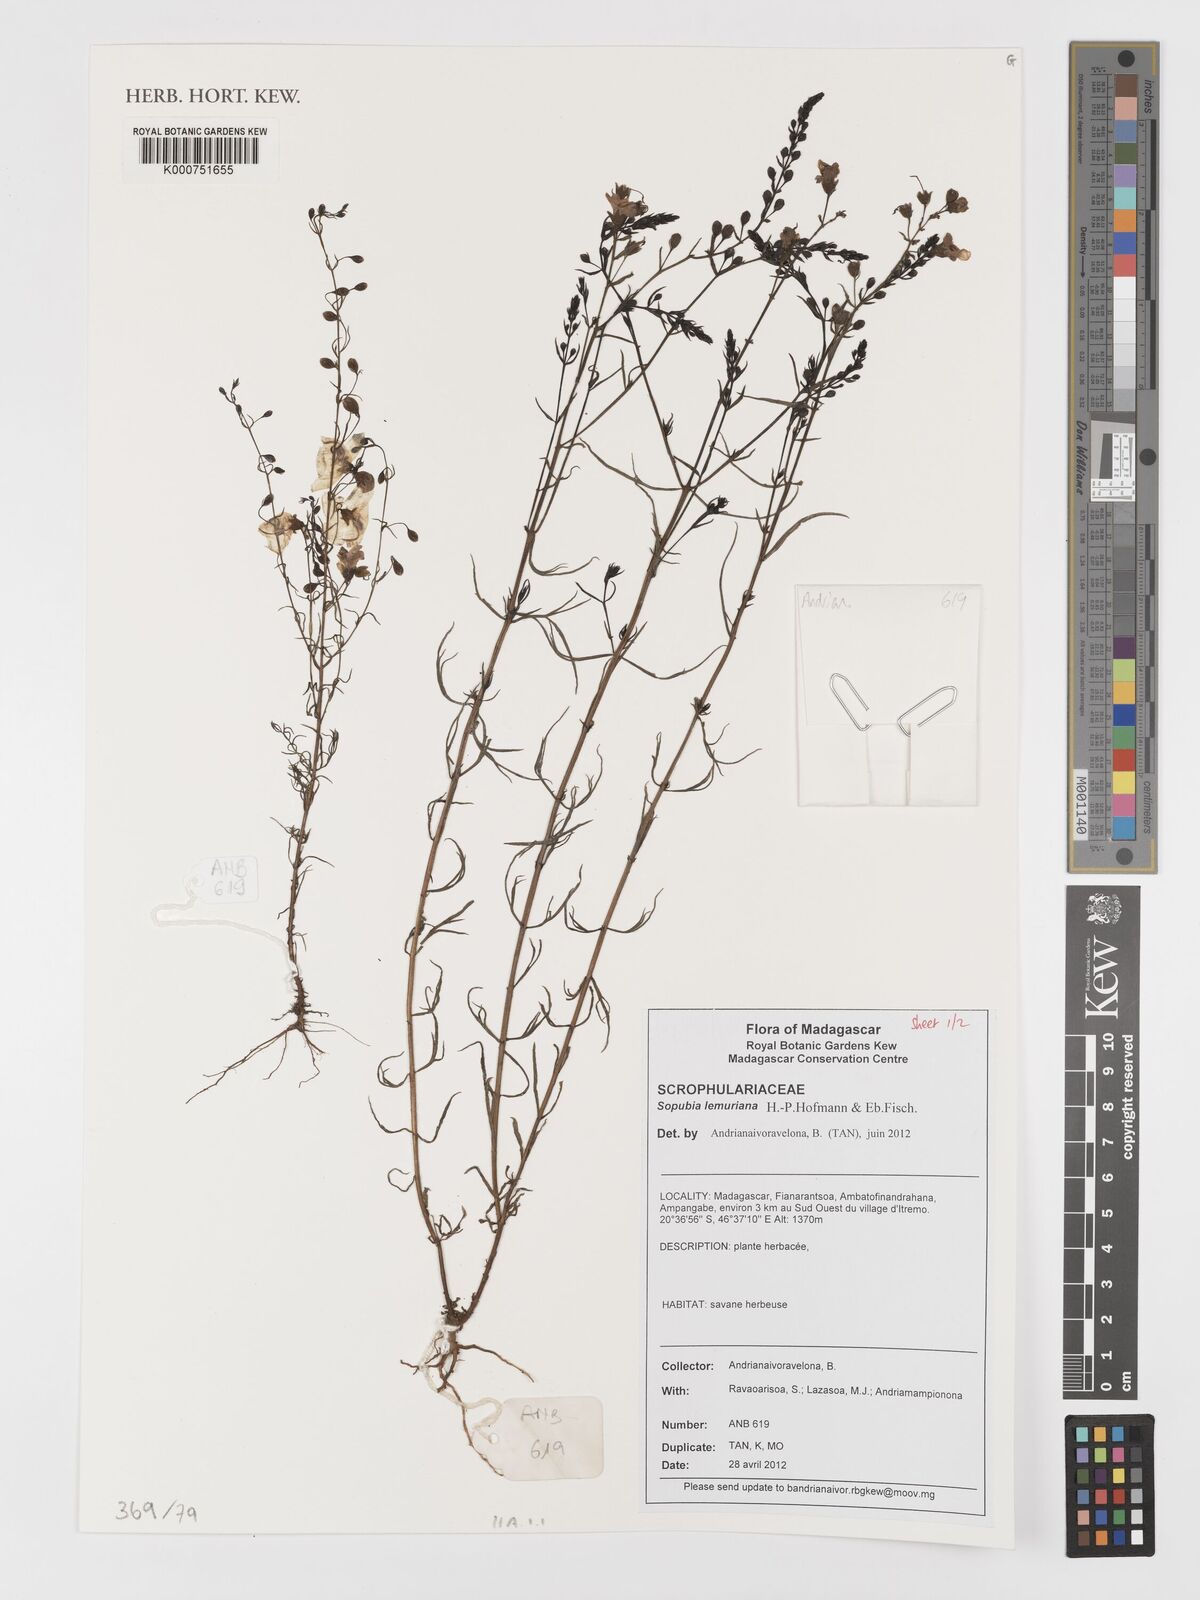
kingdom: Plantae
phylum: Tracheophyta
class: Magnoliopsida
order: Lamiales
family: Orobanchaceae
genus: Sopubia
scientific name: Sopubia lemuriana
